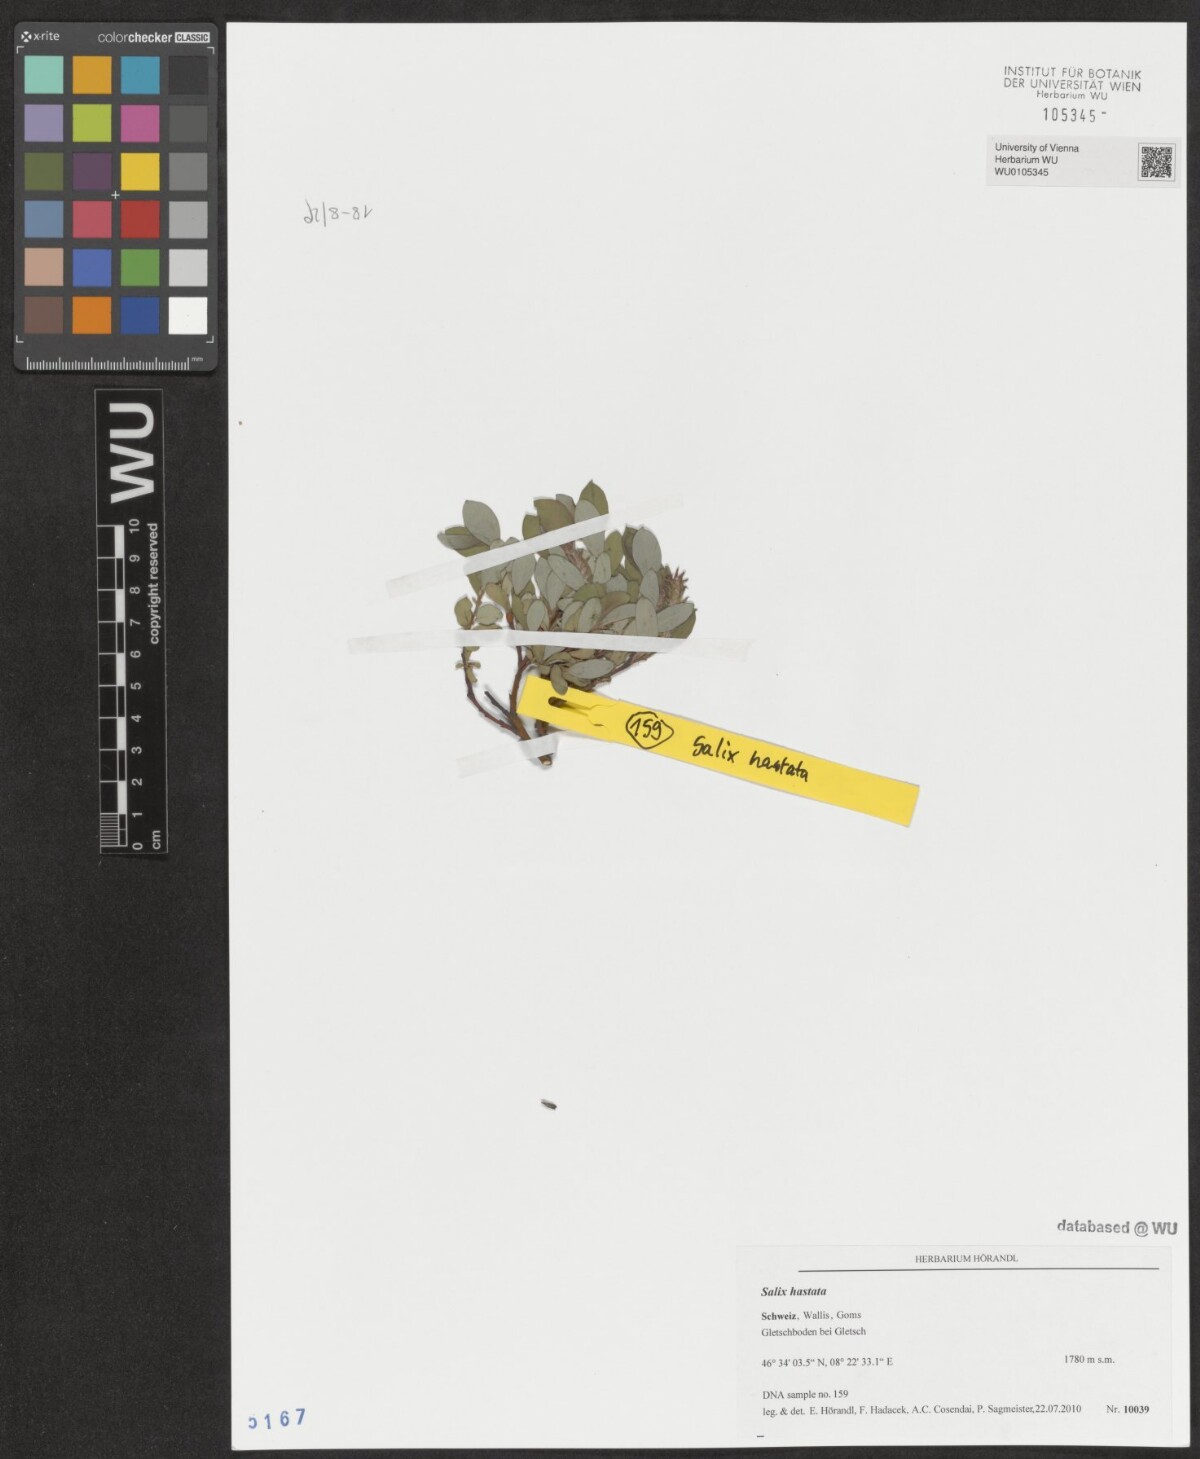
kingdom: Plantae
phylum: Tracheophyta
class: Magnoliopsida
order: Malpighiales
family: Salicaceae
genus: Salix
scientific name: Salix hastata
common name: Halberd willow
